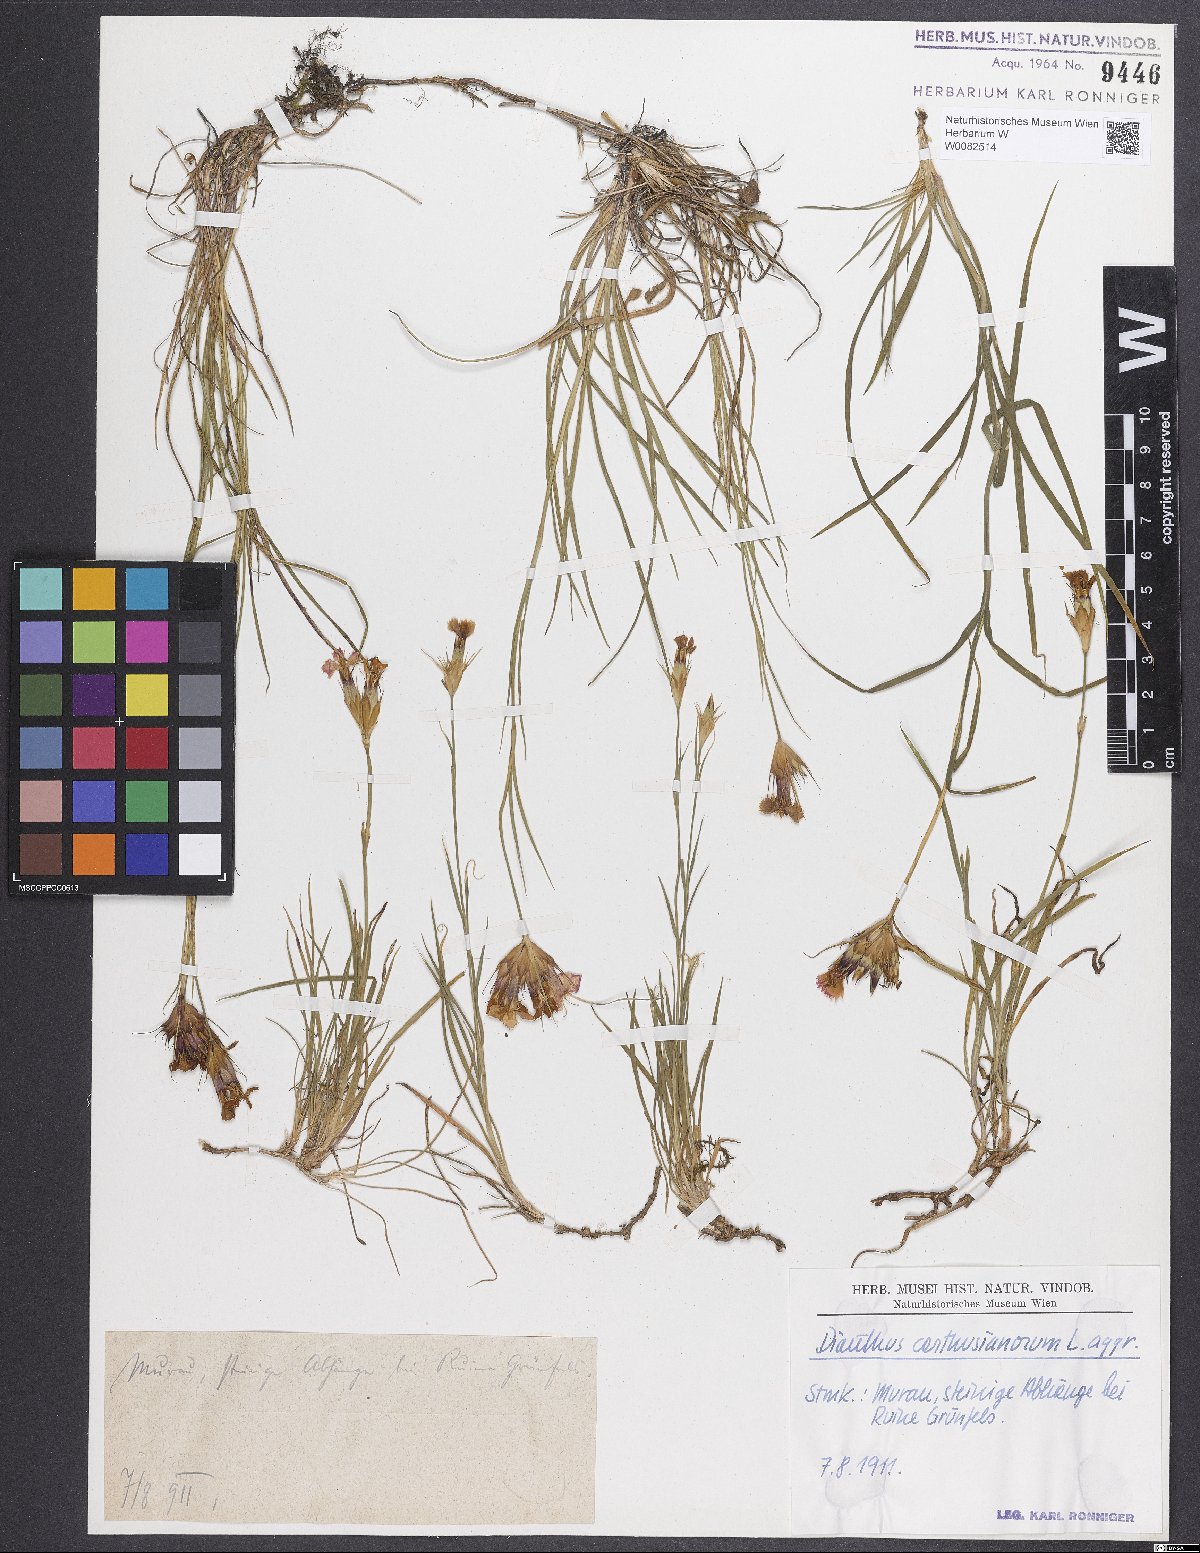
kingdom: Plantae
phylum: Tracheophyta
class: Magnoliopsida
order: Caryophyllales
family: Caryophyllaceae
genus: Dianthus
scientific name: Dianthus carthusianorum
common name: Carthusian pink
